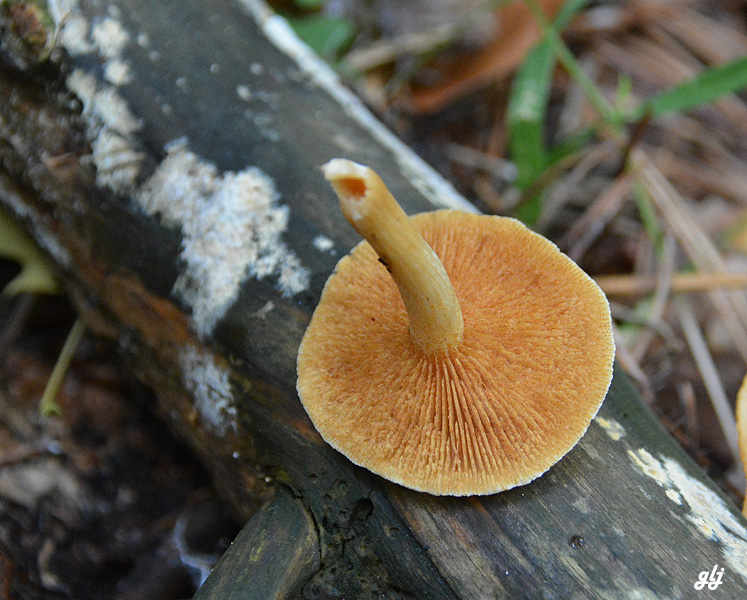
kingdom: Fungi
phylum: Basidiomycota
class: Agaricomycetes
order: Agaricales
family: Hymenogastraceae
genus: Gymnopilus
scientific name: Gymnopilus penetrans
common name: plettet flammehat
